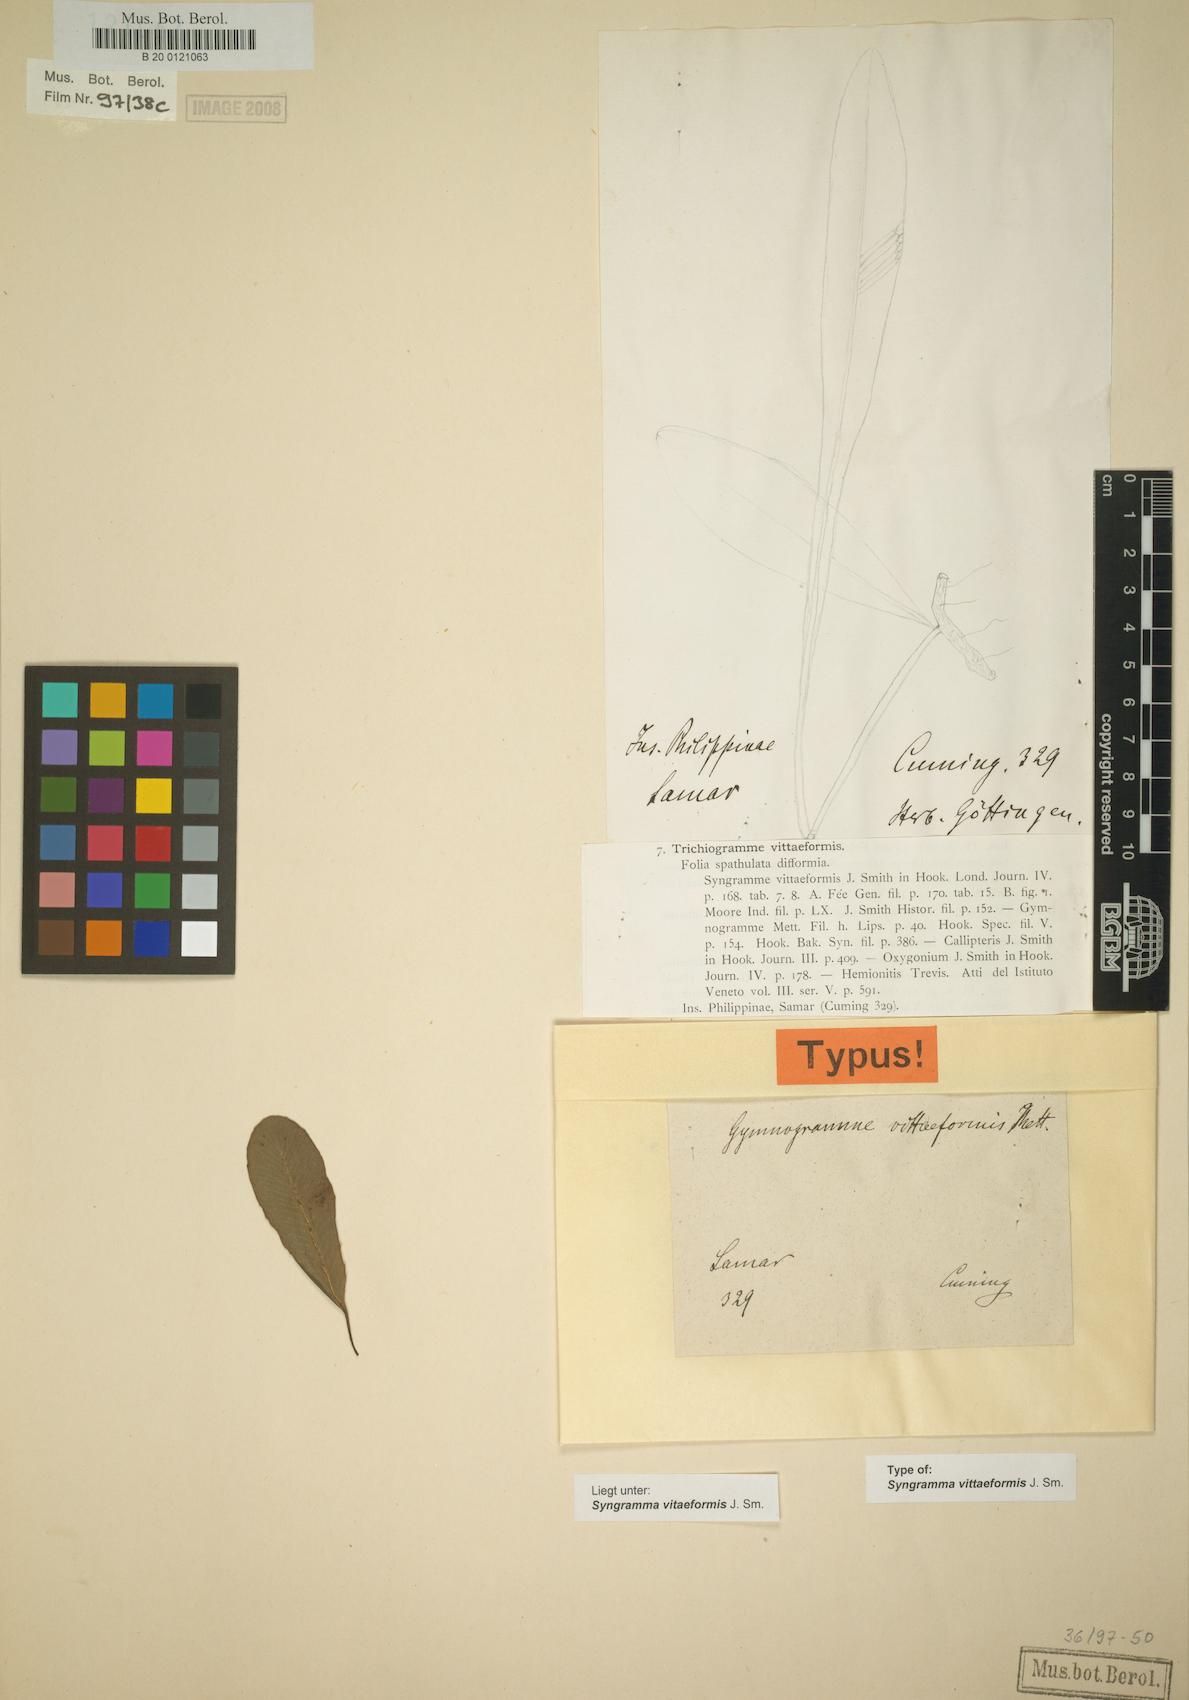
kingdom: Plantae
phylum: Tracheophyta
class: Polypodiopsida
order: Polypodiales
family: Pteridaceae
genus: Syngramma
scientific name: Syngramma vittaeformis
